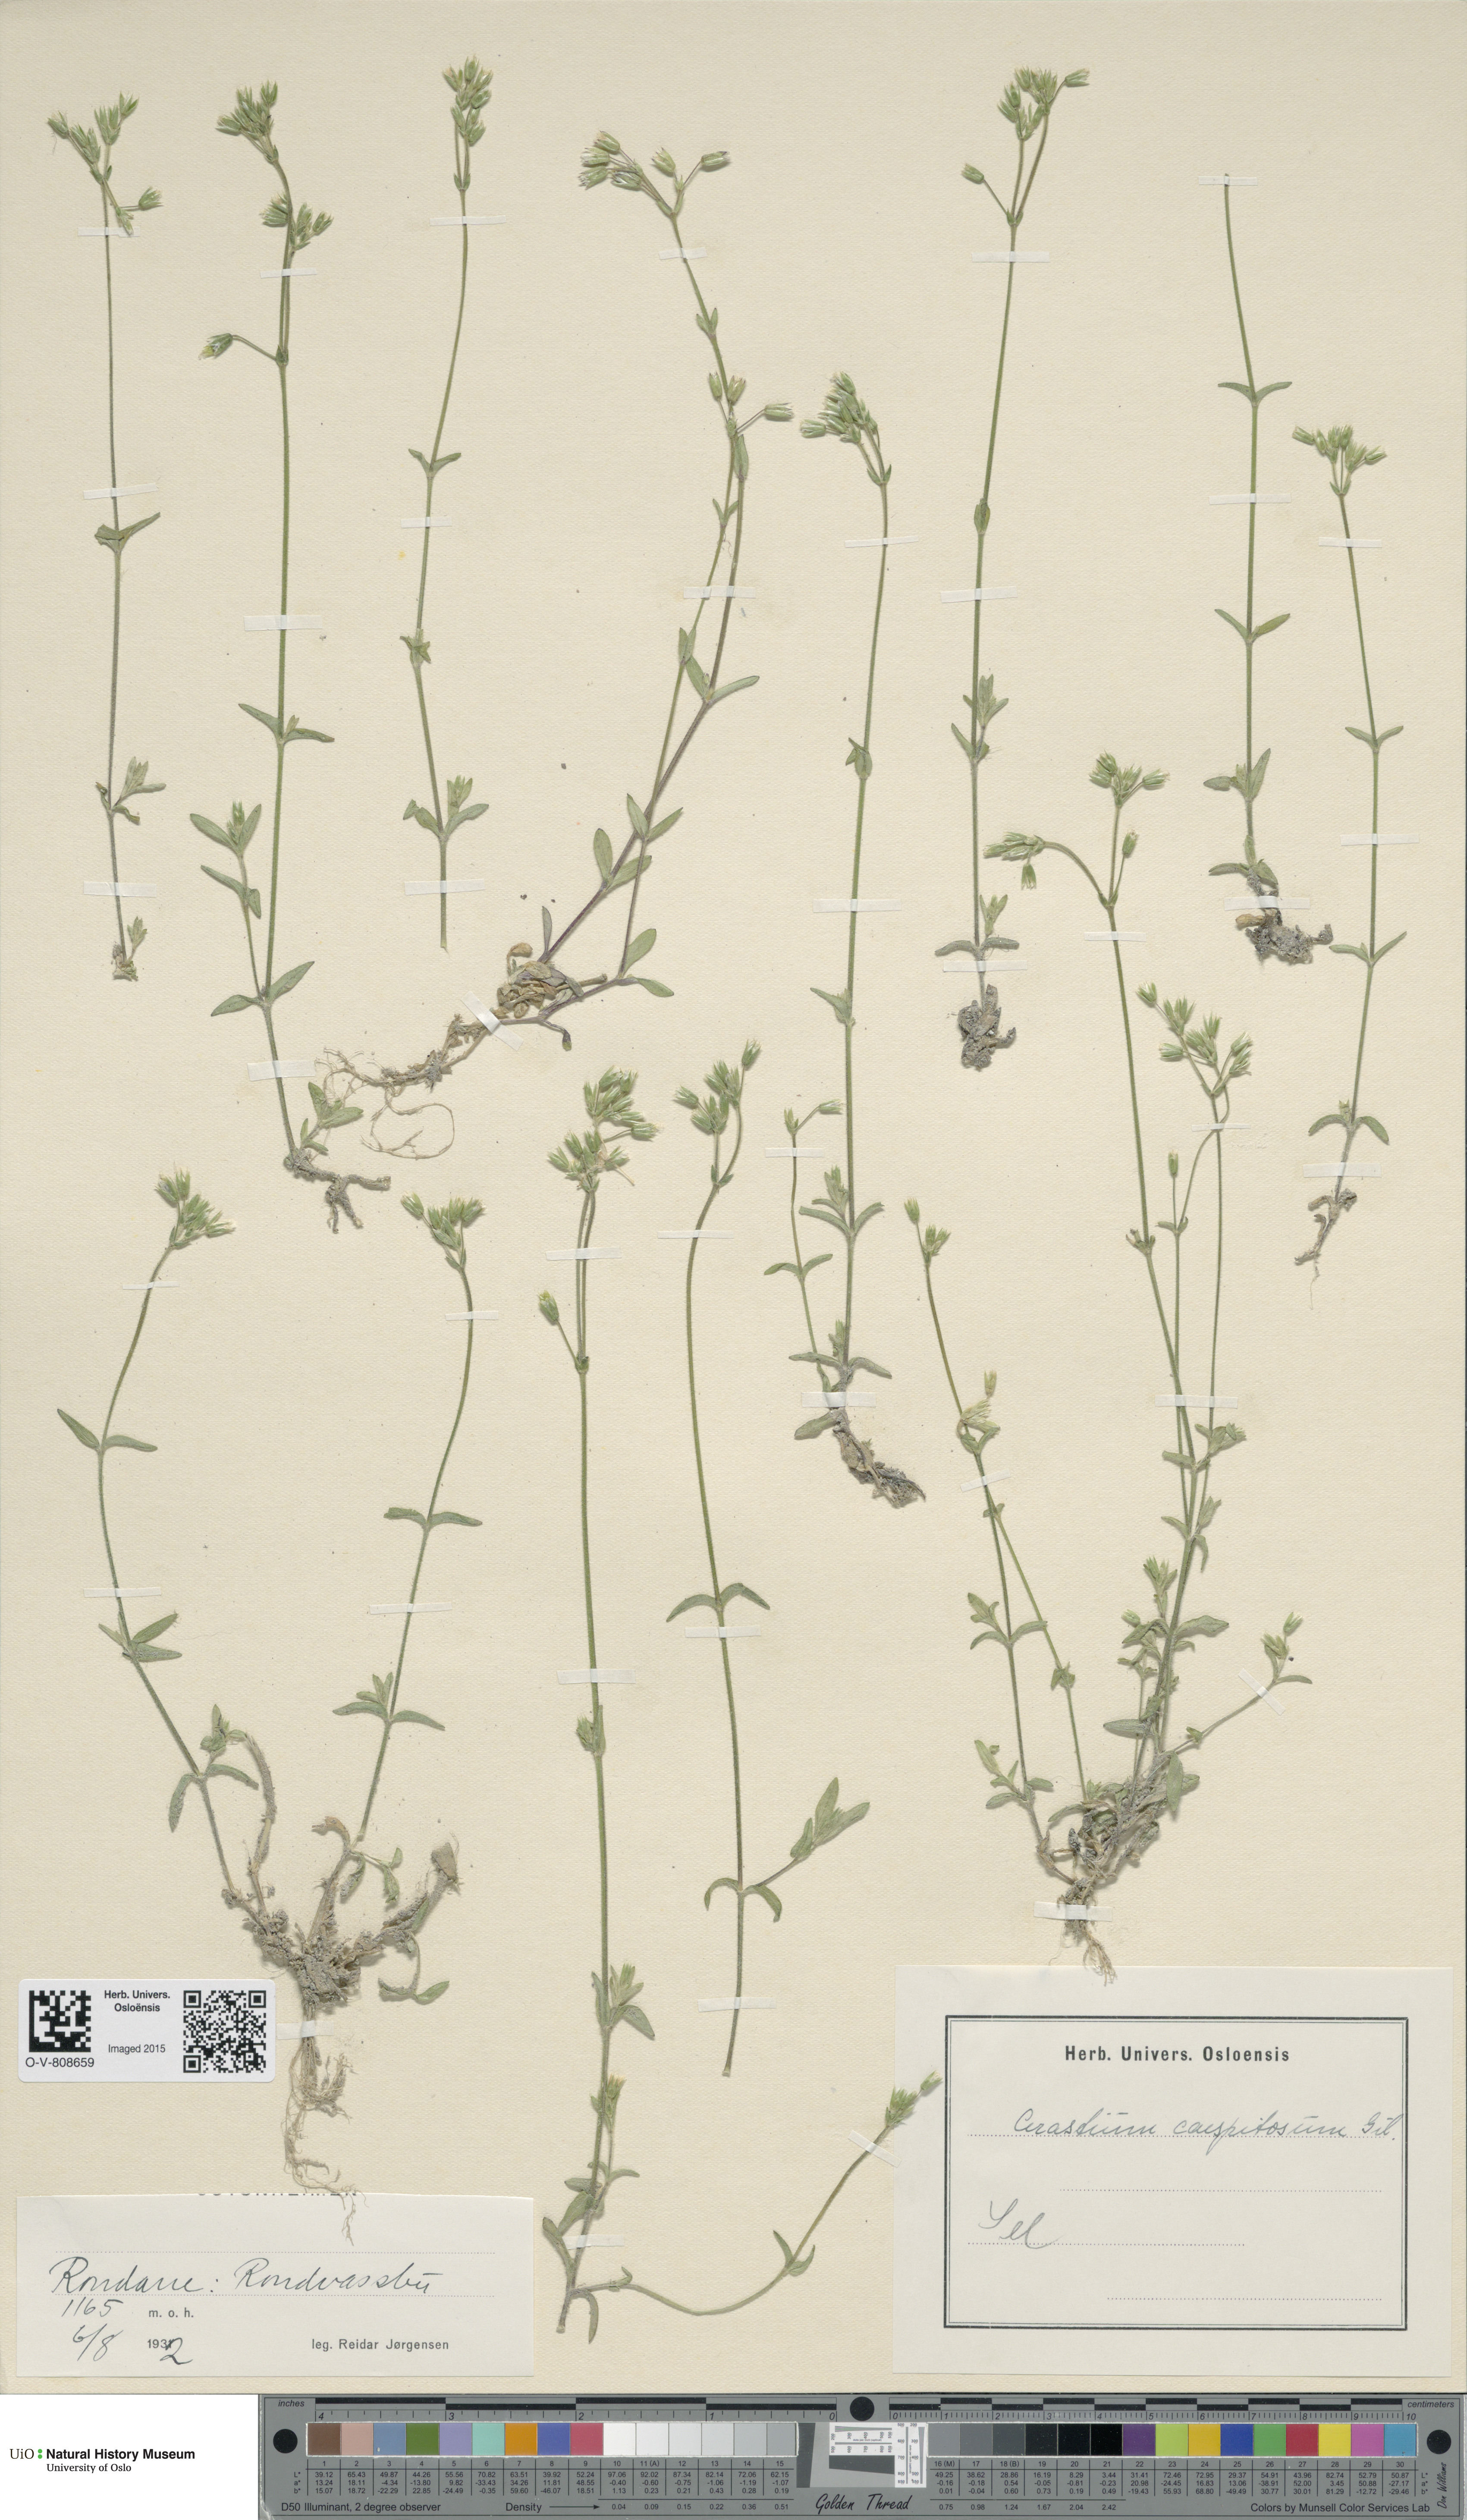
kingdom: Plantae
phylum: Tracheophyta
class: Magnoliopsida
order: Caryophyllales
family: Caryophyllaceae
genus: Cerastium
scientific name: Cerastium holosteoides
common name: Big chickweed
